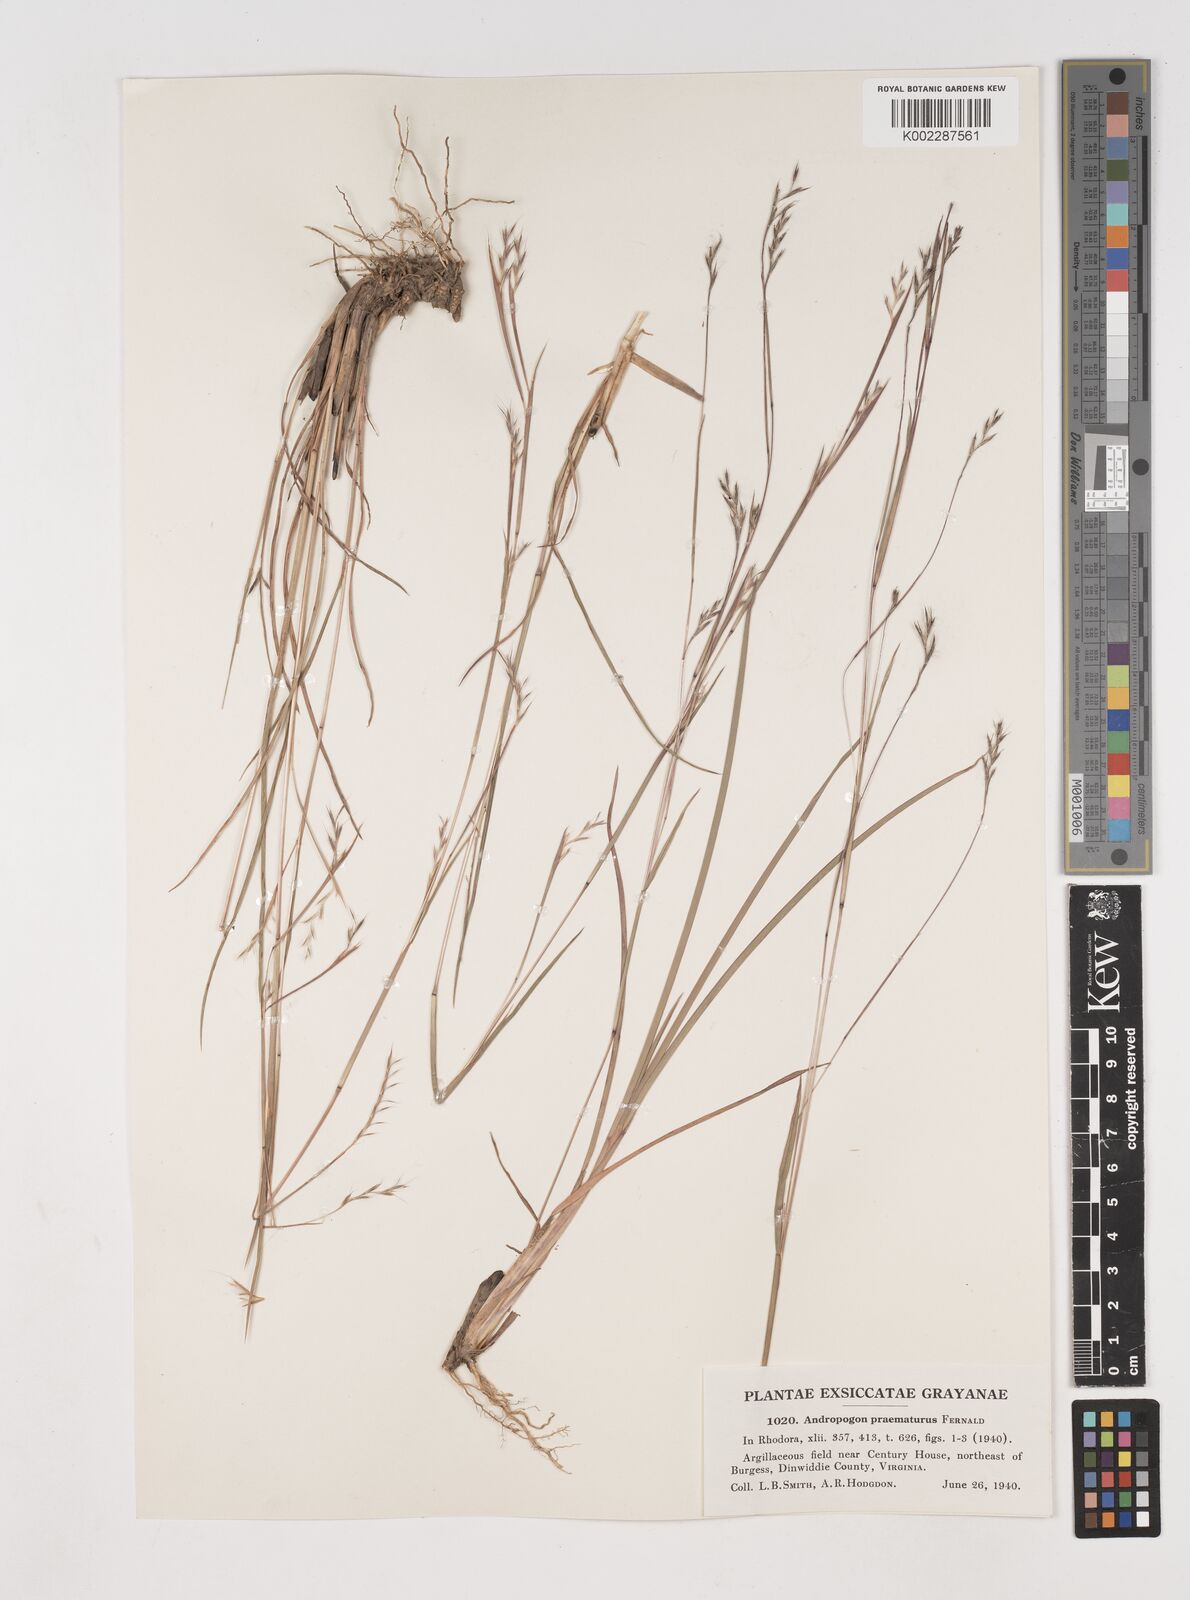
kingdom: Plantae
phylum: Tracheophyta
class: Liliopsida
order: Poales
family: Poaceae
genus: Schizachyrium
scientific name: Schizachyrium scoparium
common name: Little bluestem
